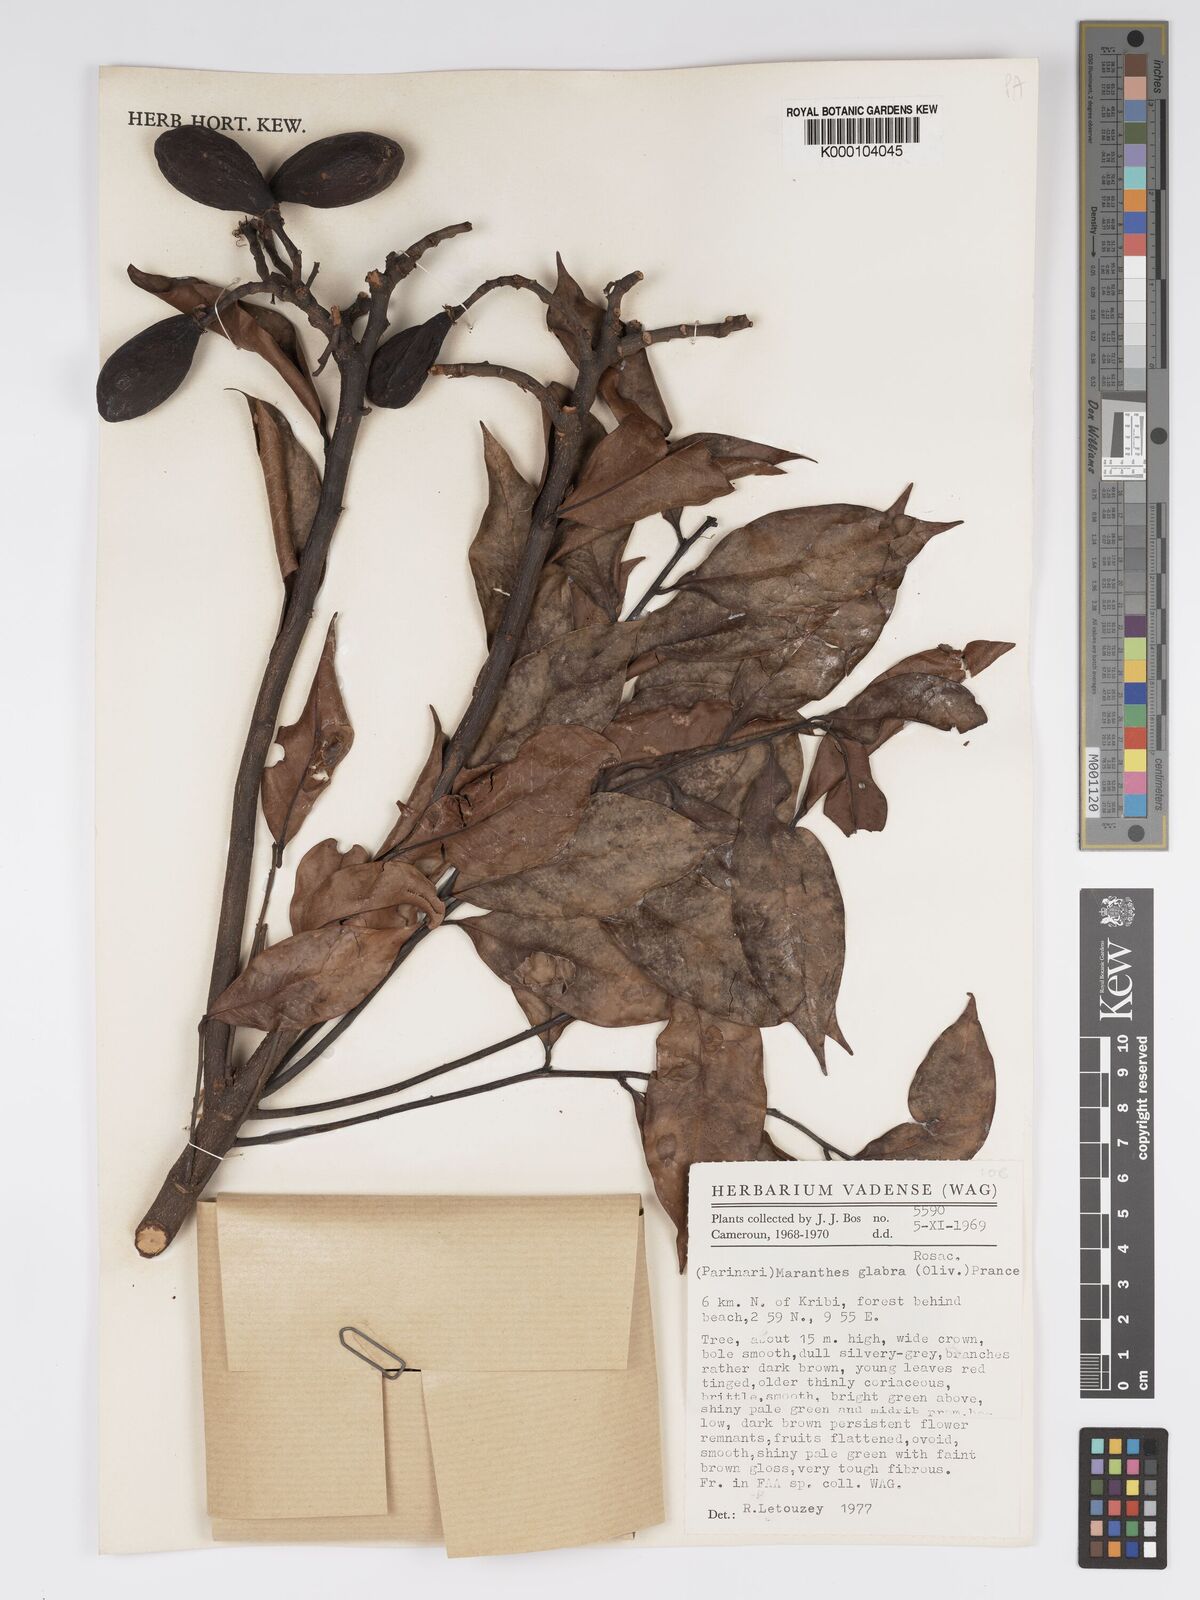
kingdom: Plantae
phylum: Tracheophyta
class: Magnoliopsida
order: Malpighiales
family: Chrysobalanaceae
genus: Maranthes
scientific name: Maranthes glabra
